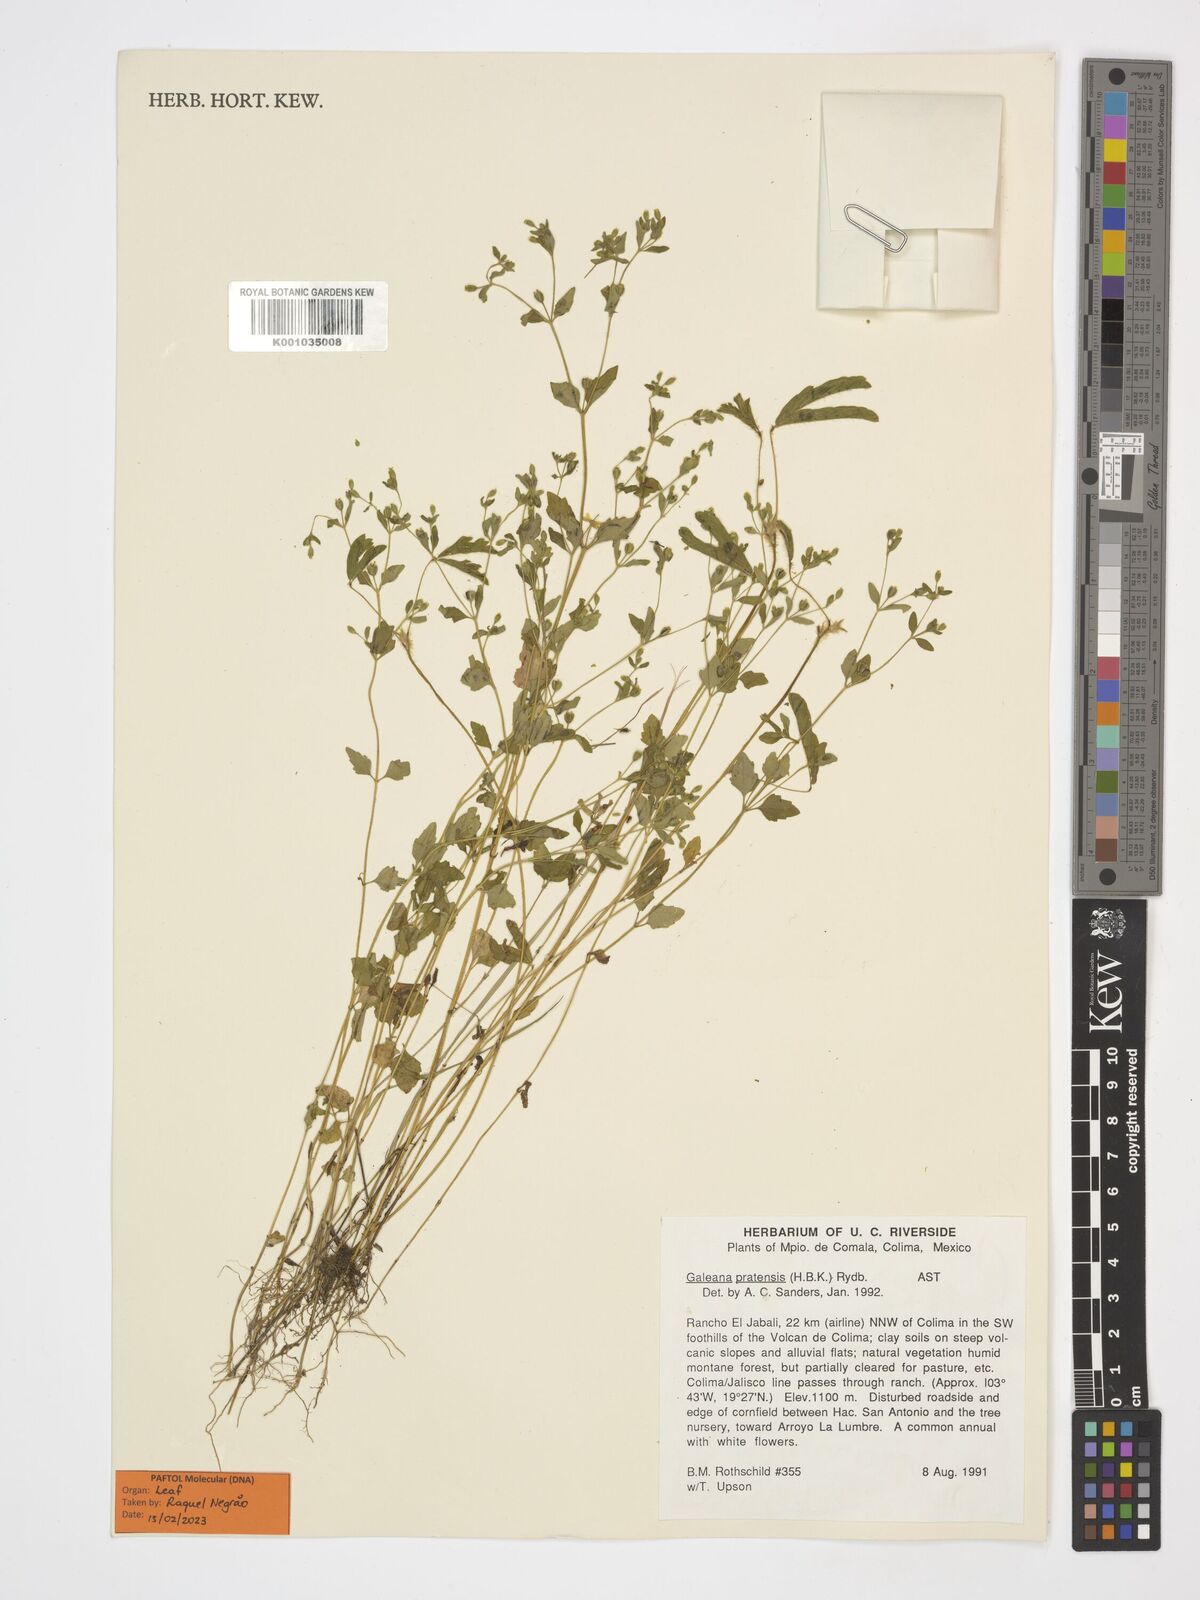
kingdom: Plantae
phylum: Tracheophyta
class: Magnoliopsida
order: Asterales
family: Asteraceae
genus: Galeana
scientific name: Galeana pratensis
